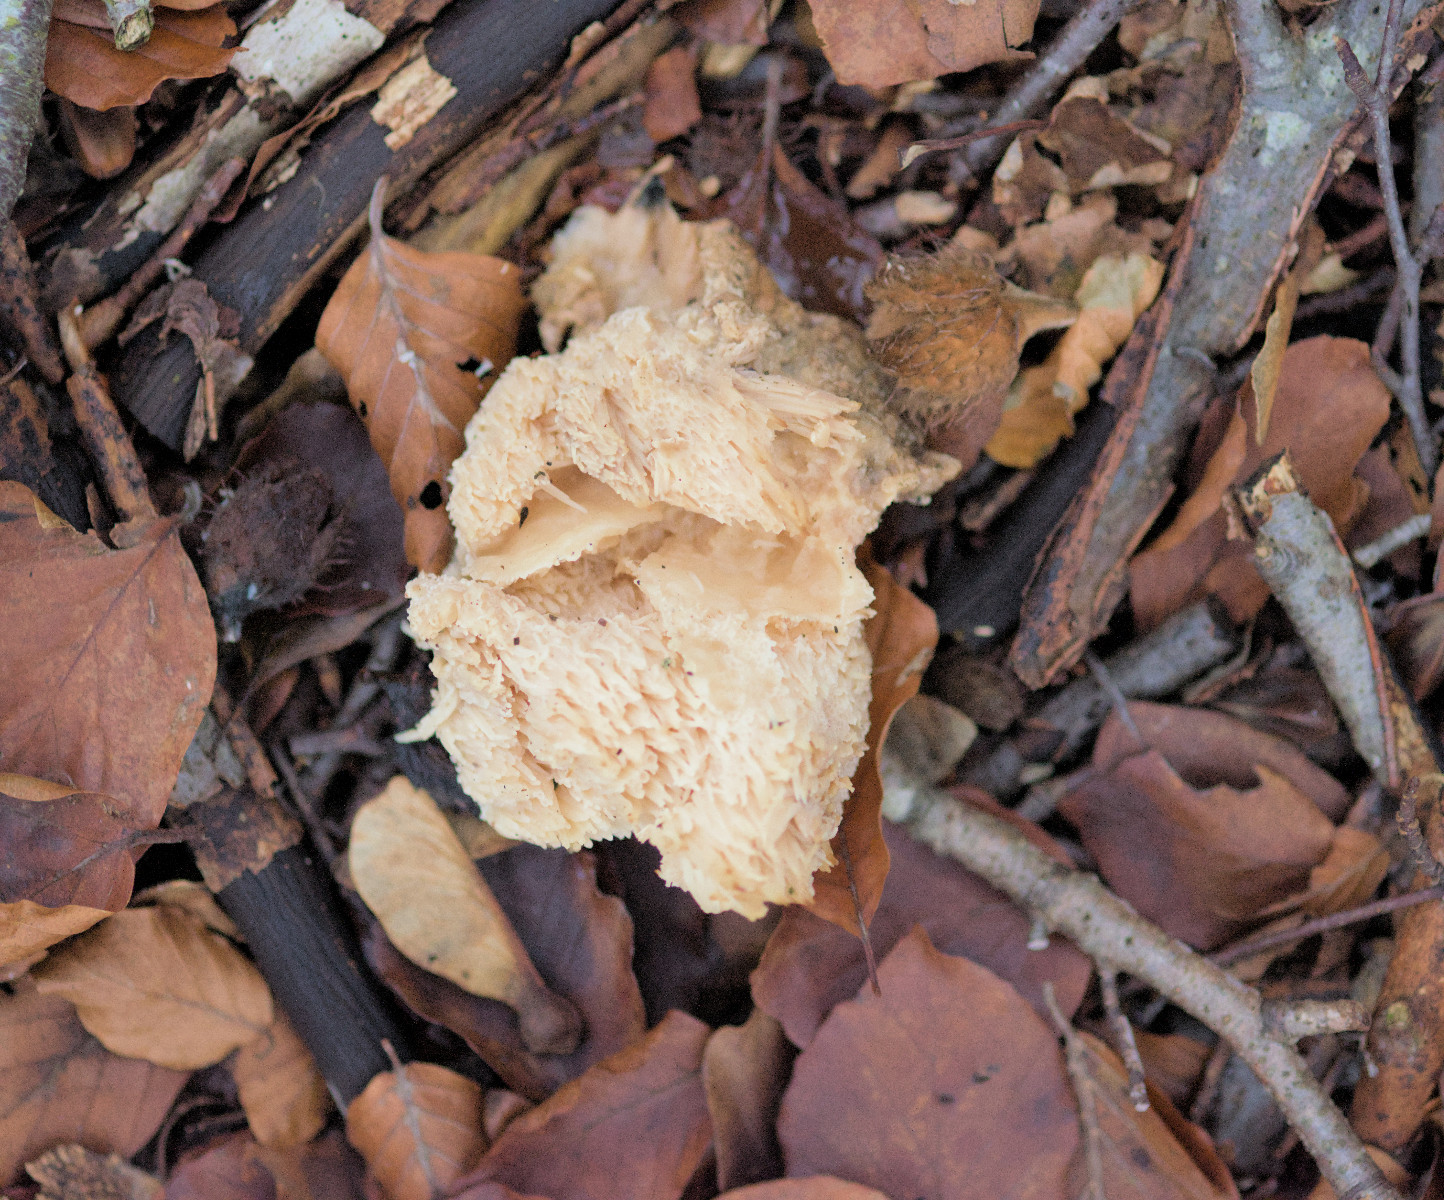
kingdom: Fungi
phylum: Basidiomycota
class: Agaricomycetes
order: Russulales
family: Hericiaceae
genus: Hericium
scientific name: Hericium
